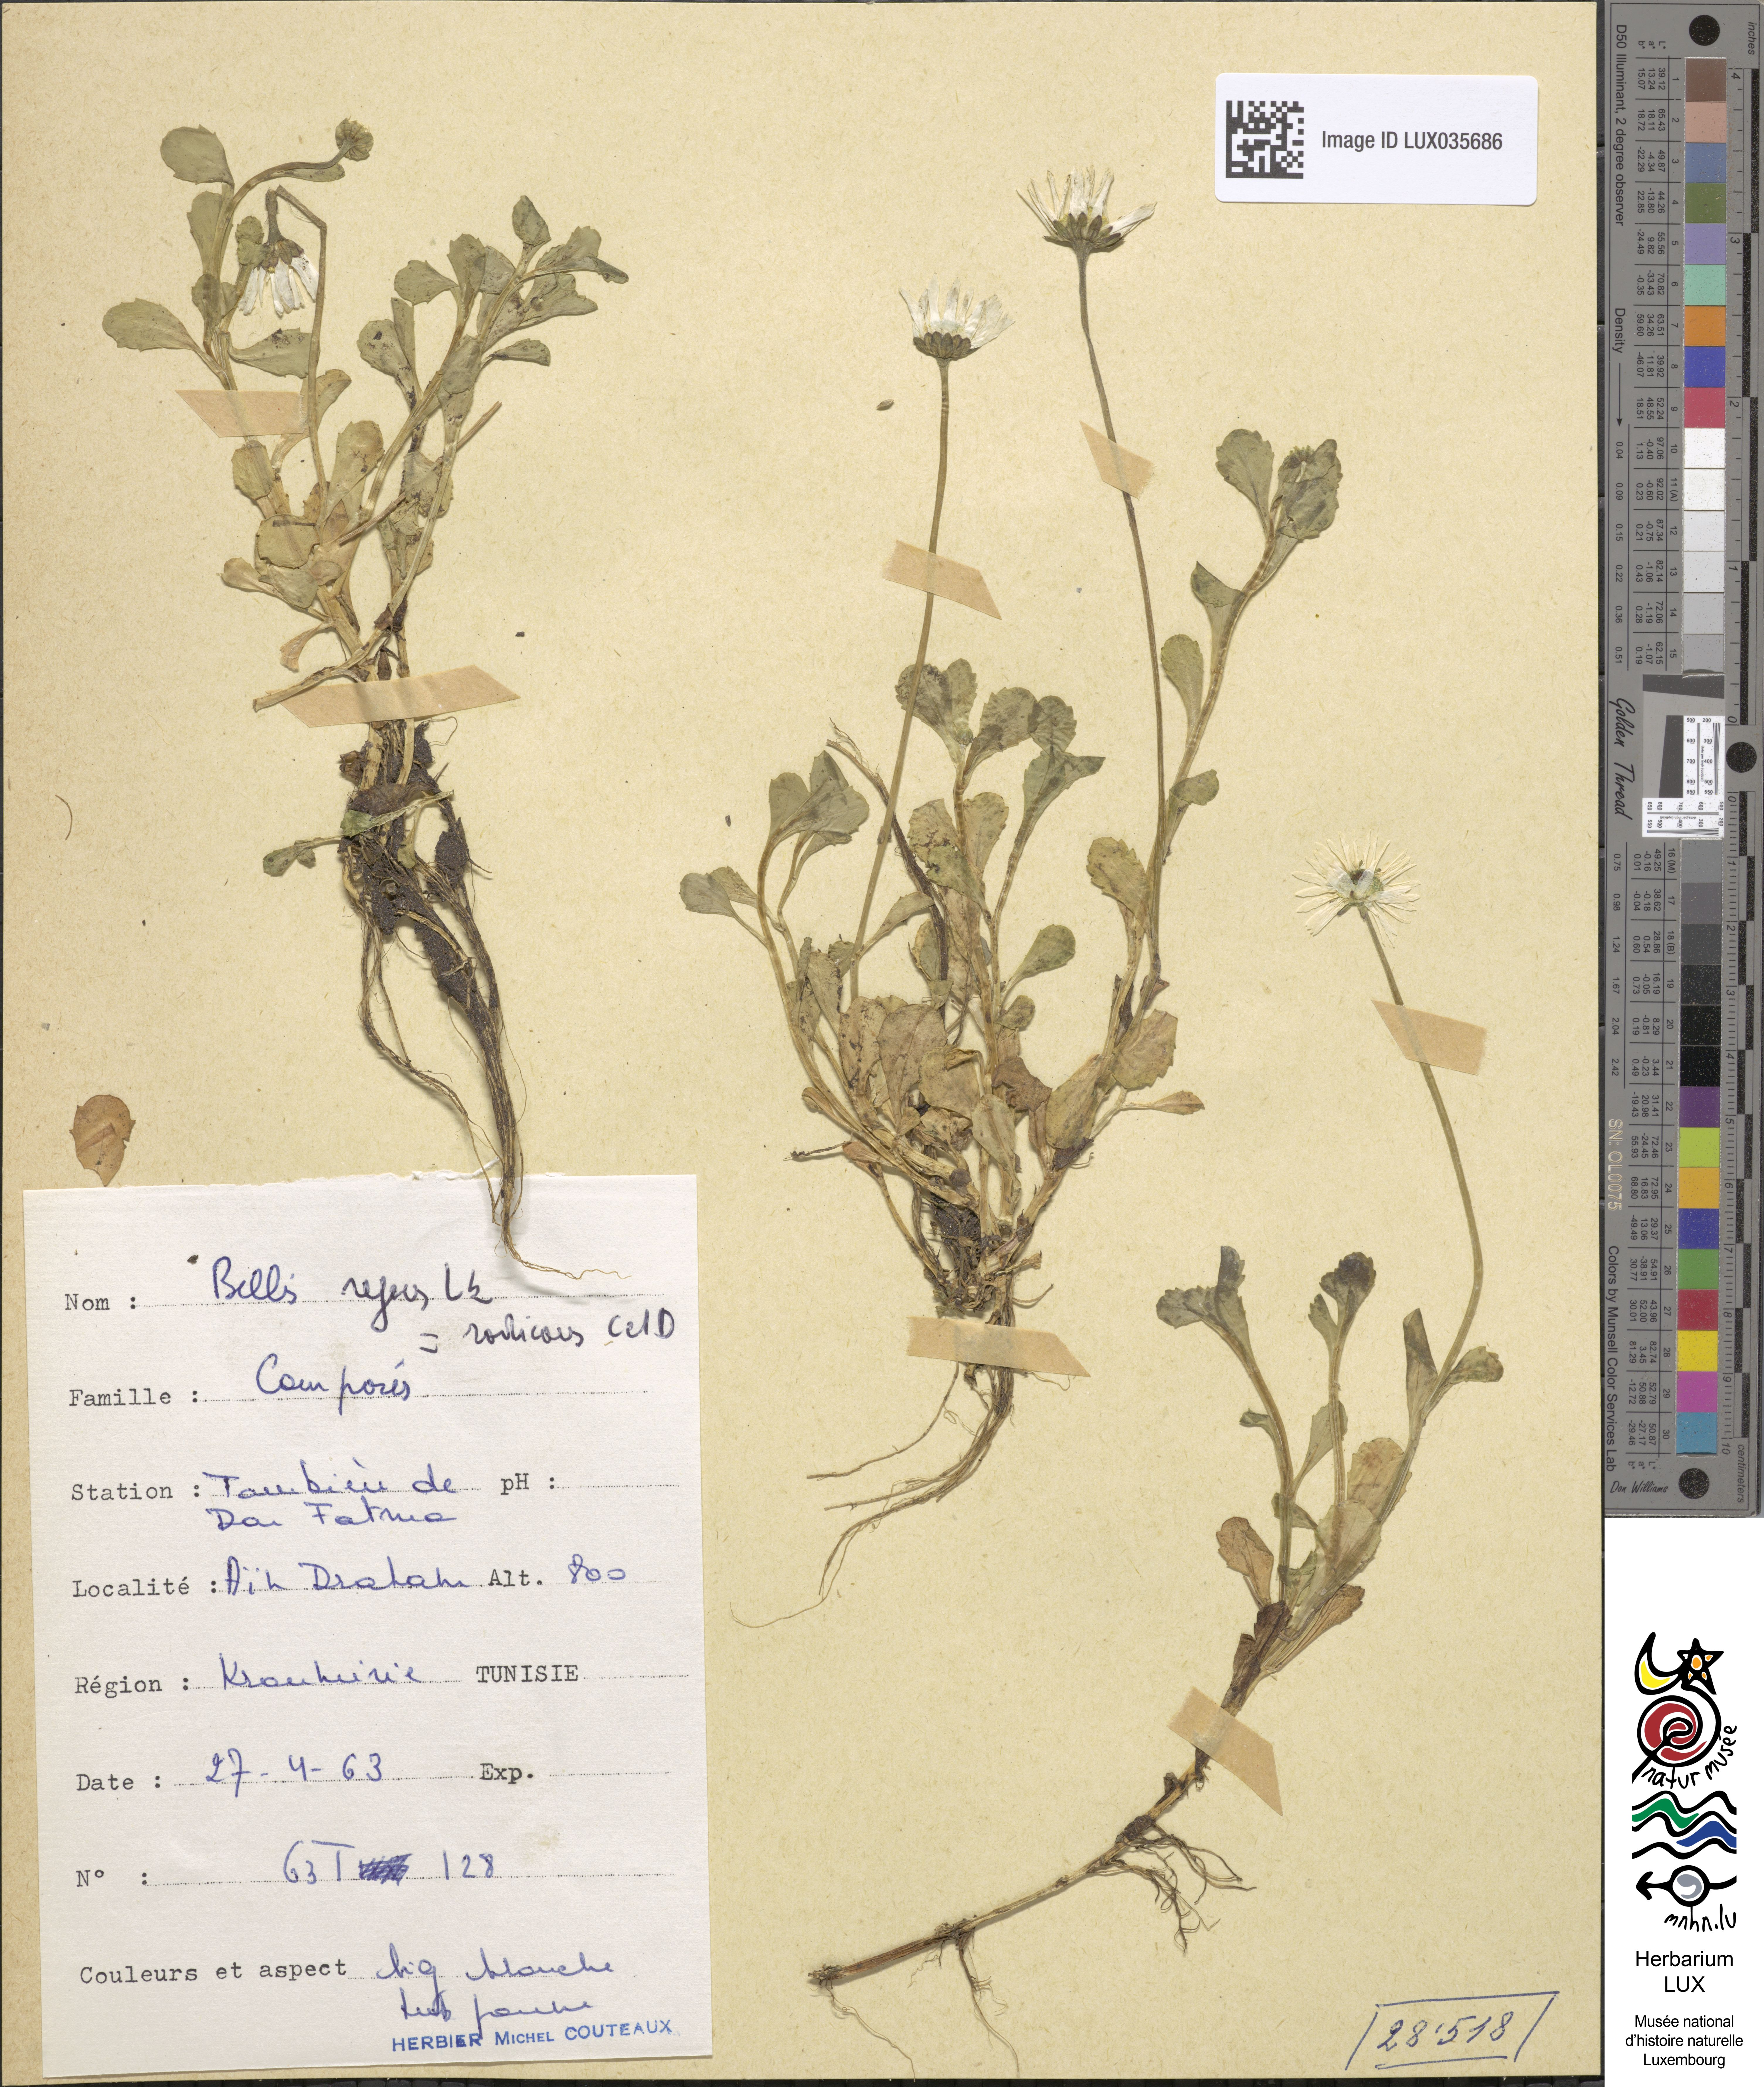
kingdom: Plantae
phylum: Tracheophyta
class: Magnoliopsida
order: Asterales
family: Asteraceae
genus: Bellis
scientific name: Bellis
